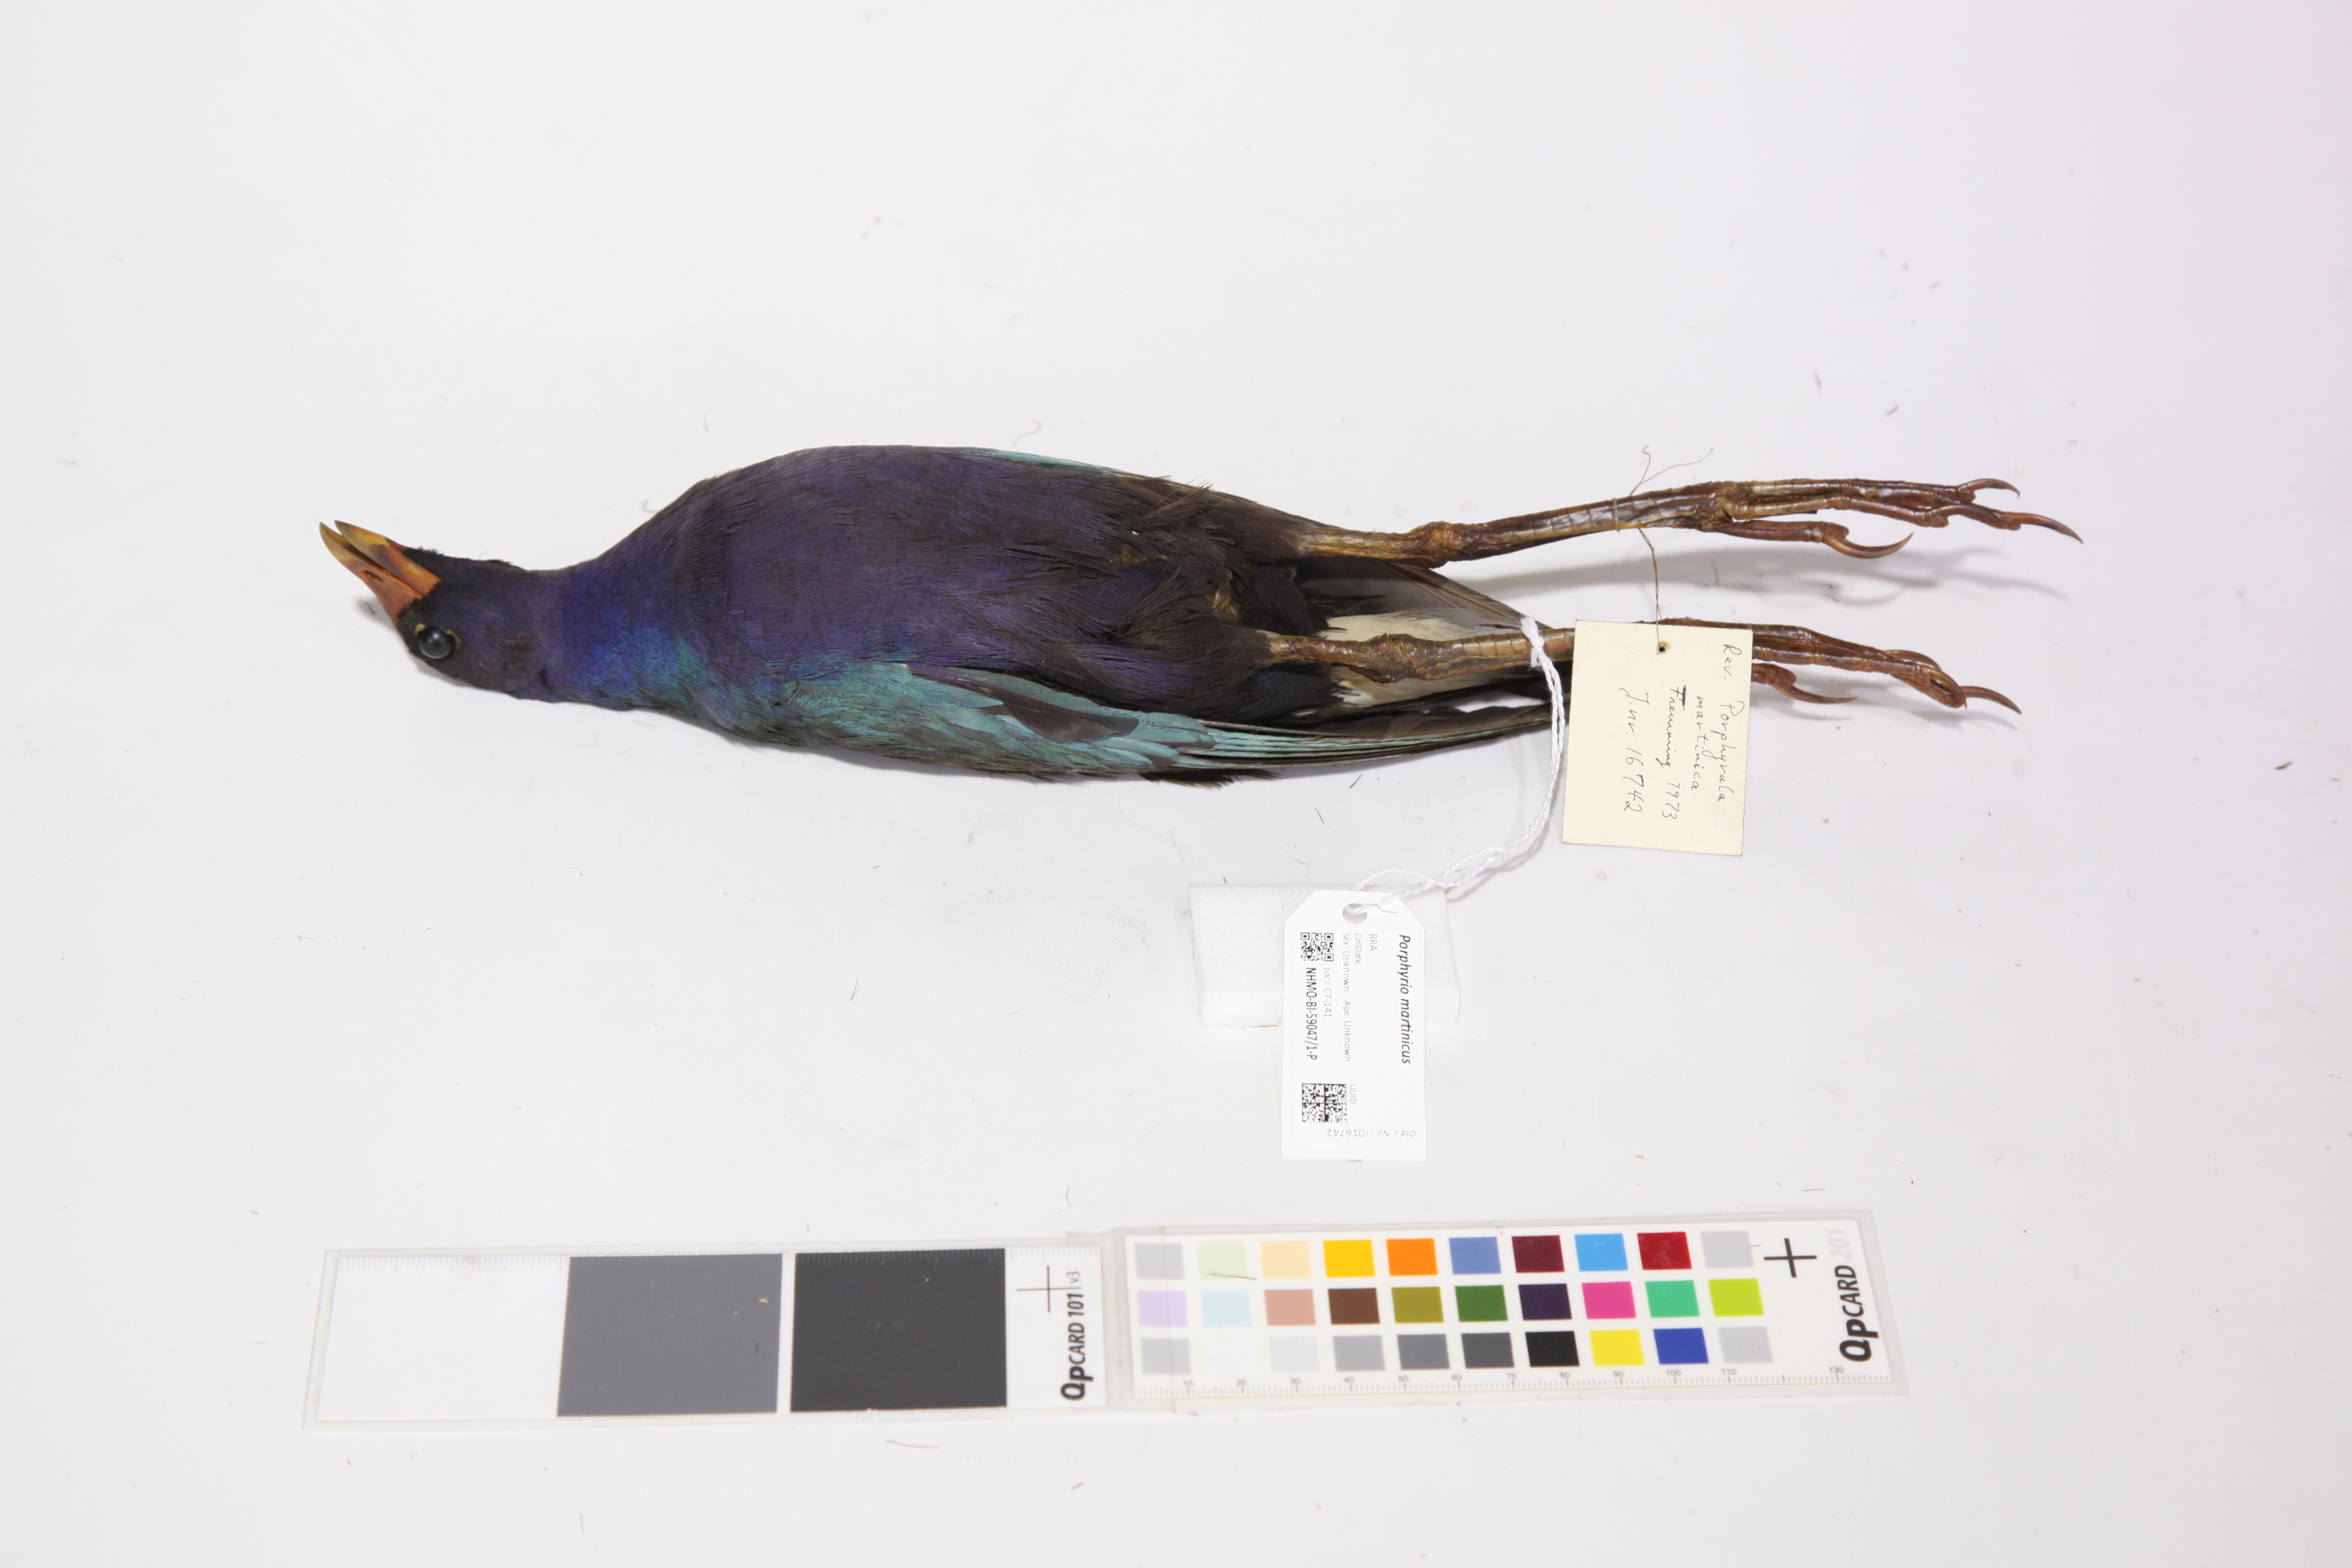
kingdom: Animalia
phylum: Chordata
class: Aves
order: Gruiformes
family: Rallidae
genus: Porphyrio
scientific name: Porphyrio martinica
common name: Purple gallinule
